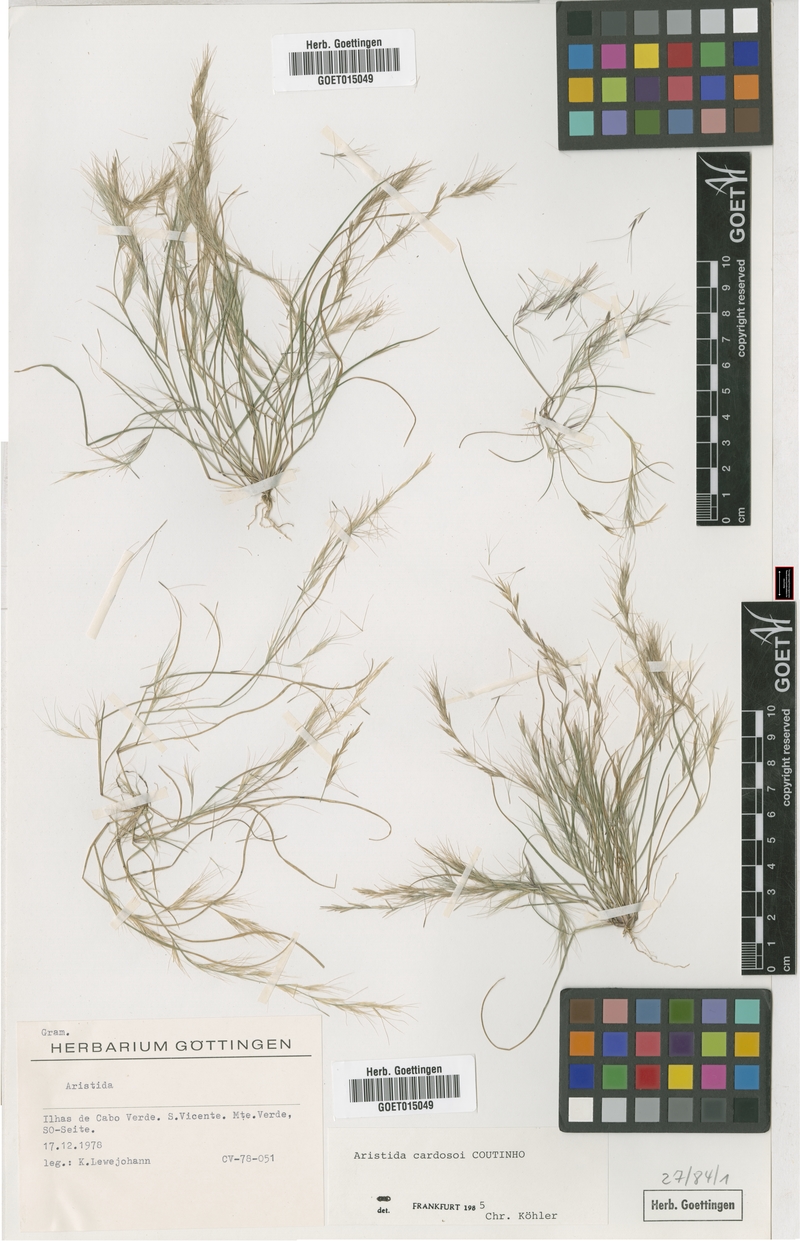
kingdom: Plantae
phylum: Tracheophyta
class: Liliopsida
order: Poales
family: Poaceae
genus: Aristida
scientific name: Aristida adscensionis
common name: Sixweeks threeawn
